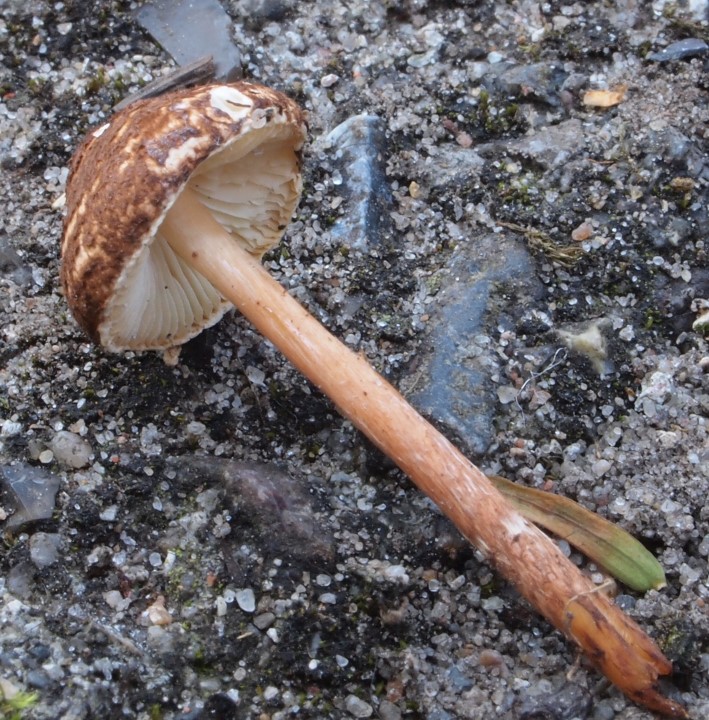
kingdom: Fungi
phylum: Basidiomycota
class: Agaricomycetes
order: Agaricales
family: Agaricaceae
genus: Lepiota
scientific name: Lepiota castanea
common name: kastaniebrun parasolhat
